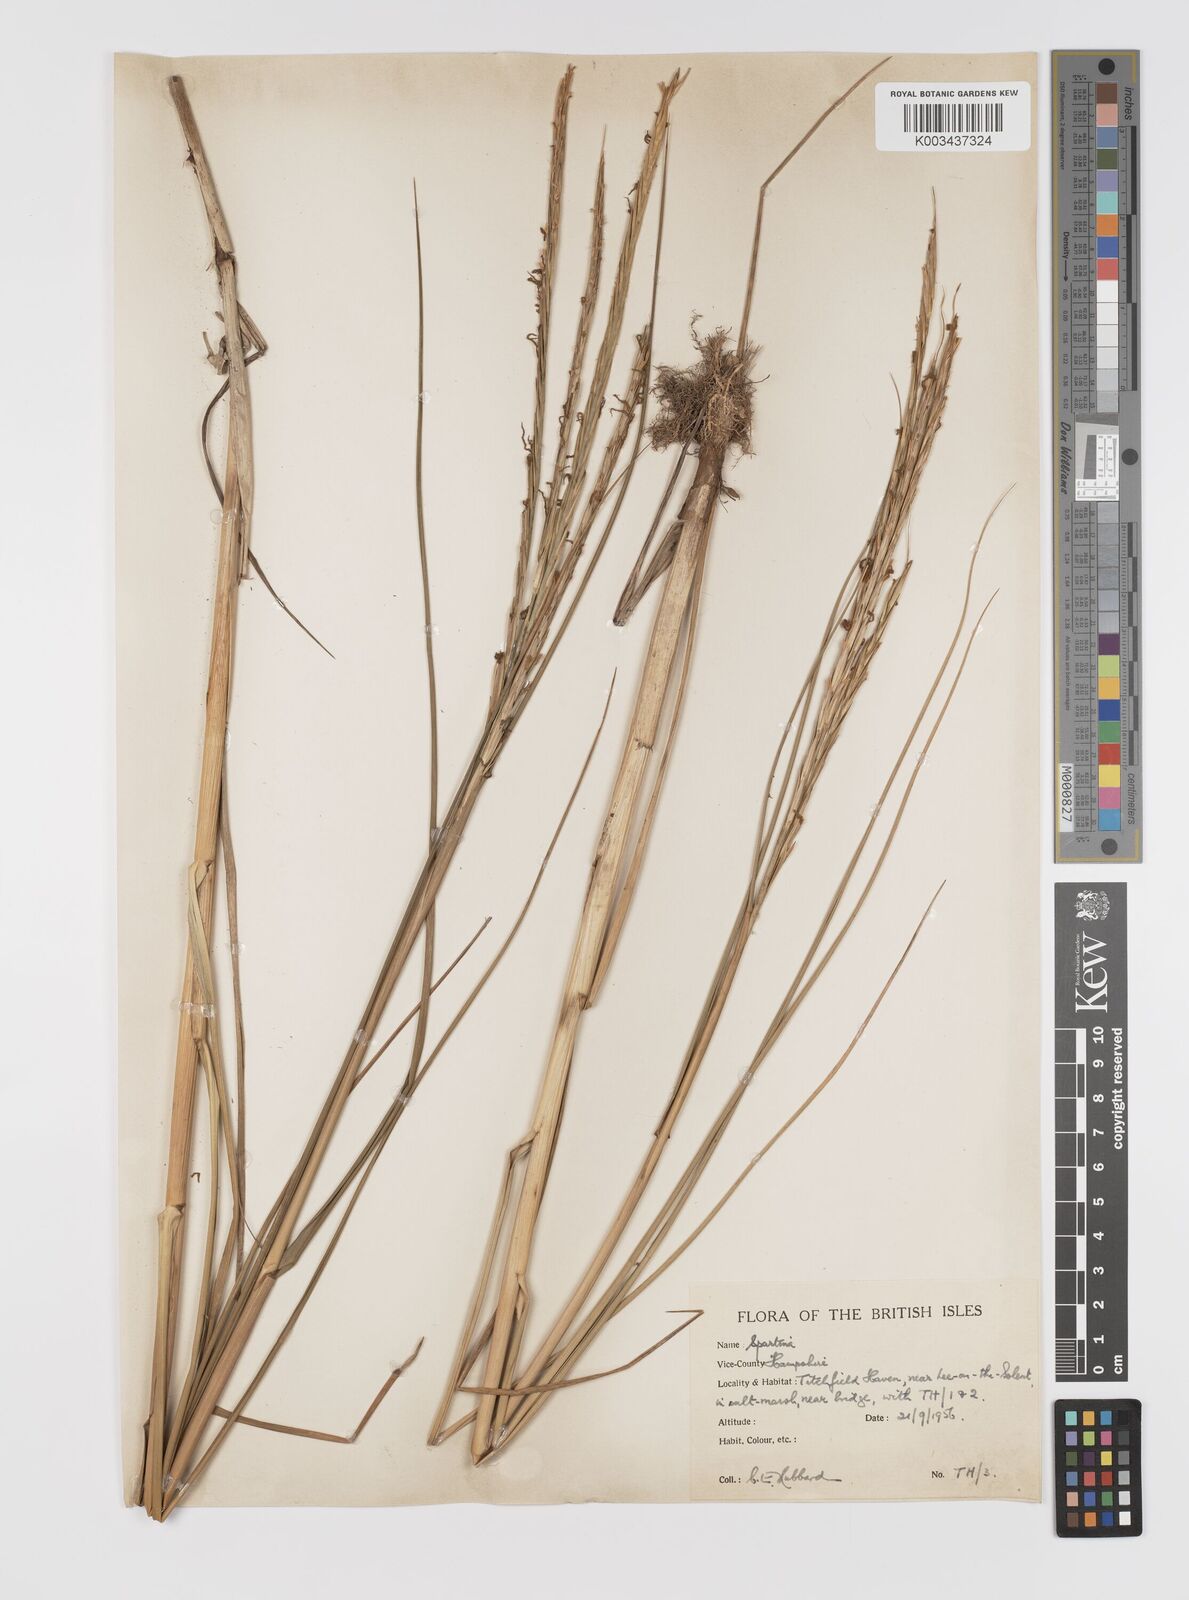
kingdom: Plantae
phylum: Tracheophyta
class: Liliopsida
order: Poales
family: Poaceae
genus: Sporobolus
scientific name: Sporobolus townsendii
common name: Townsend's cordgrass
